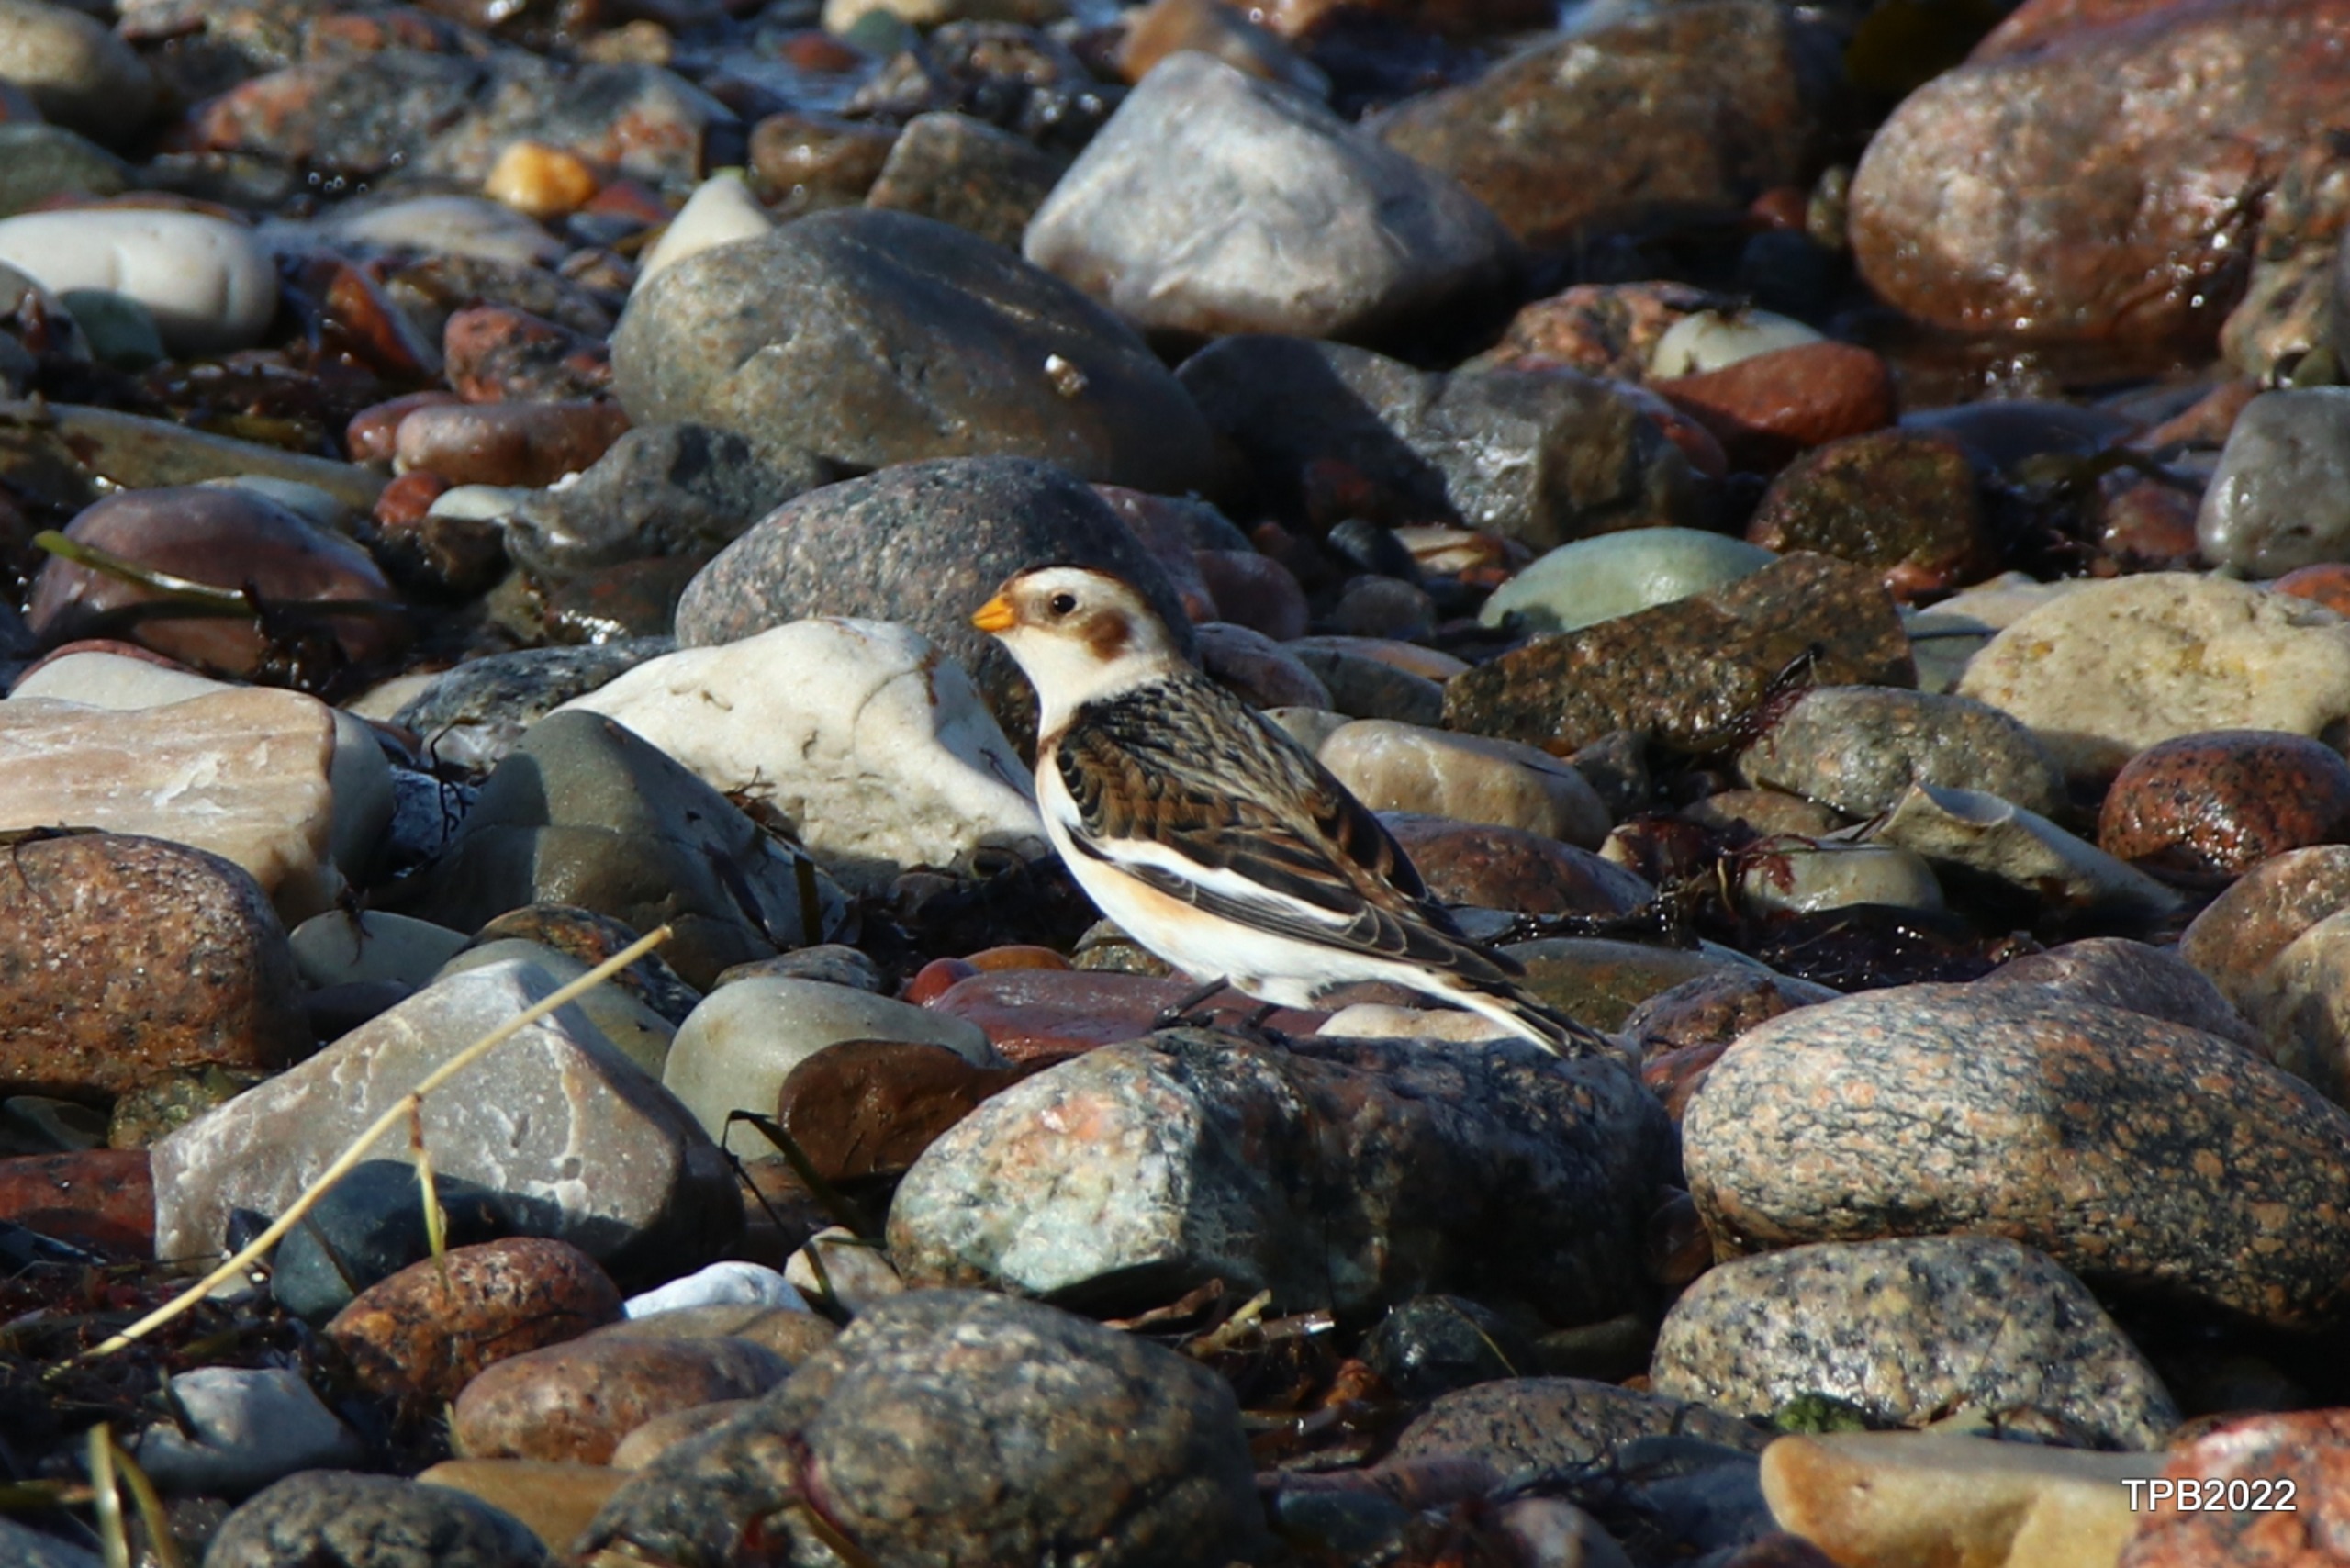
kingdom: Animalia
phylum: Chordata
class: Aves
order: Passeriformes
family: Calcariidae
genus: Plectrophenax
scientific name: Plectrophenax nivalis
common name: Snespurv
